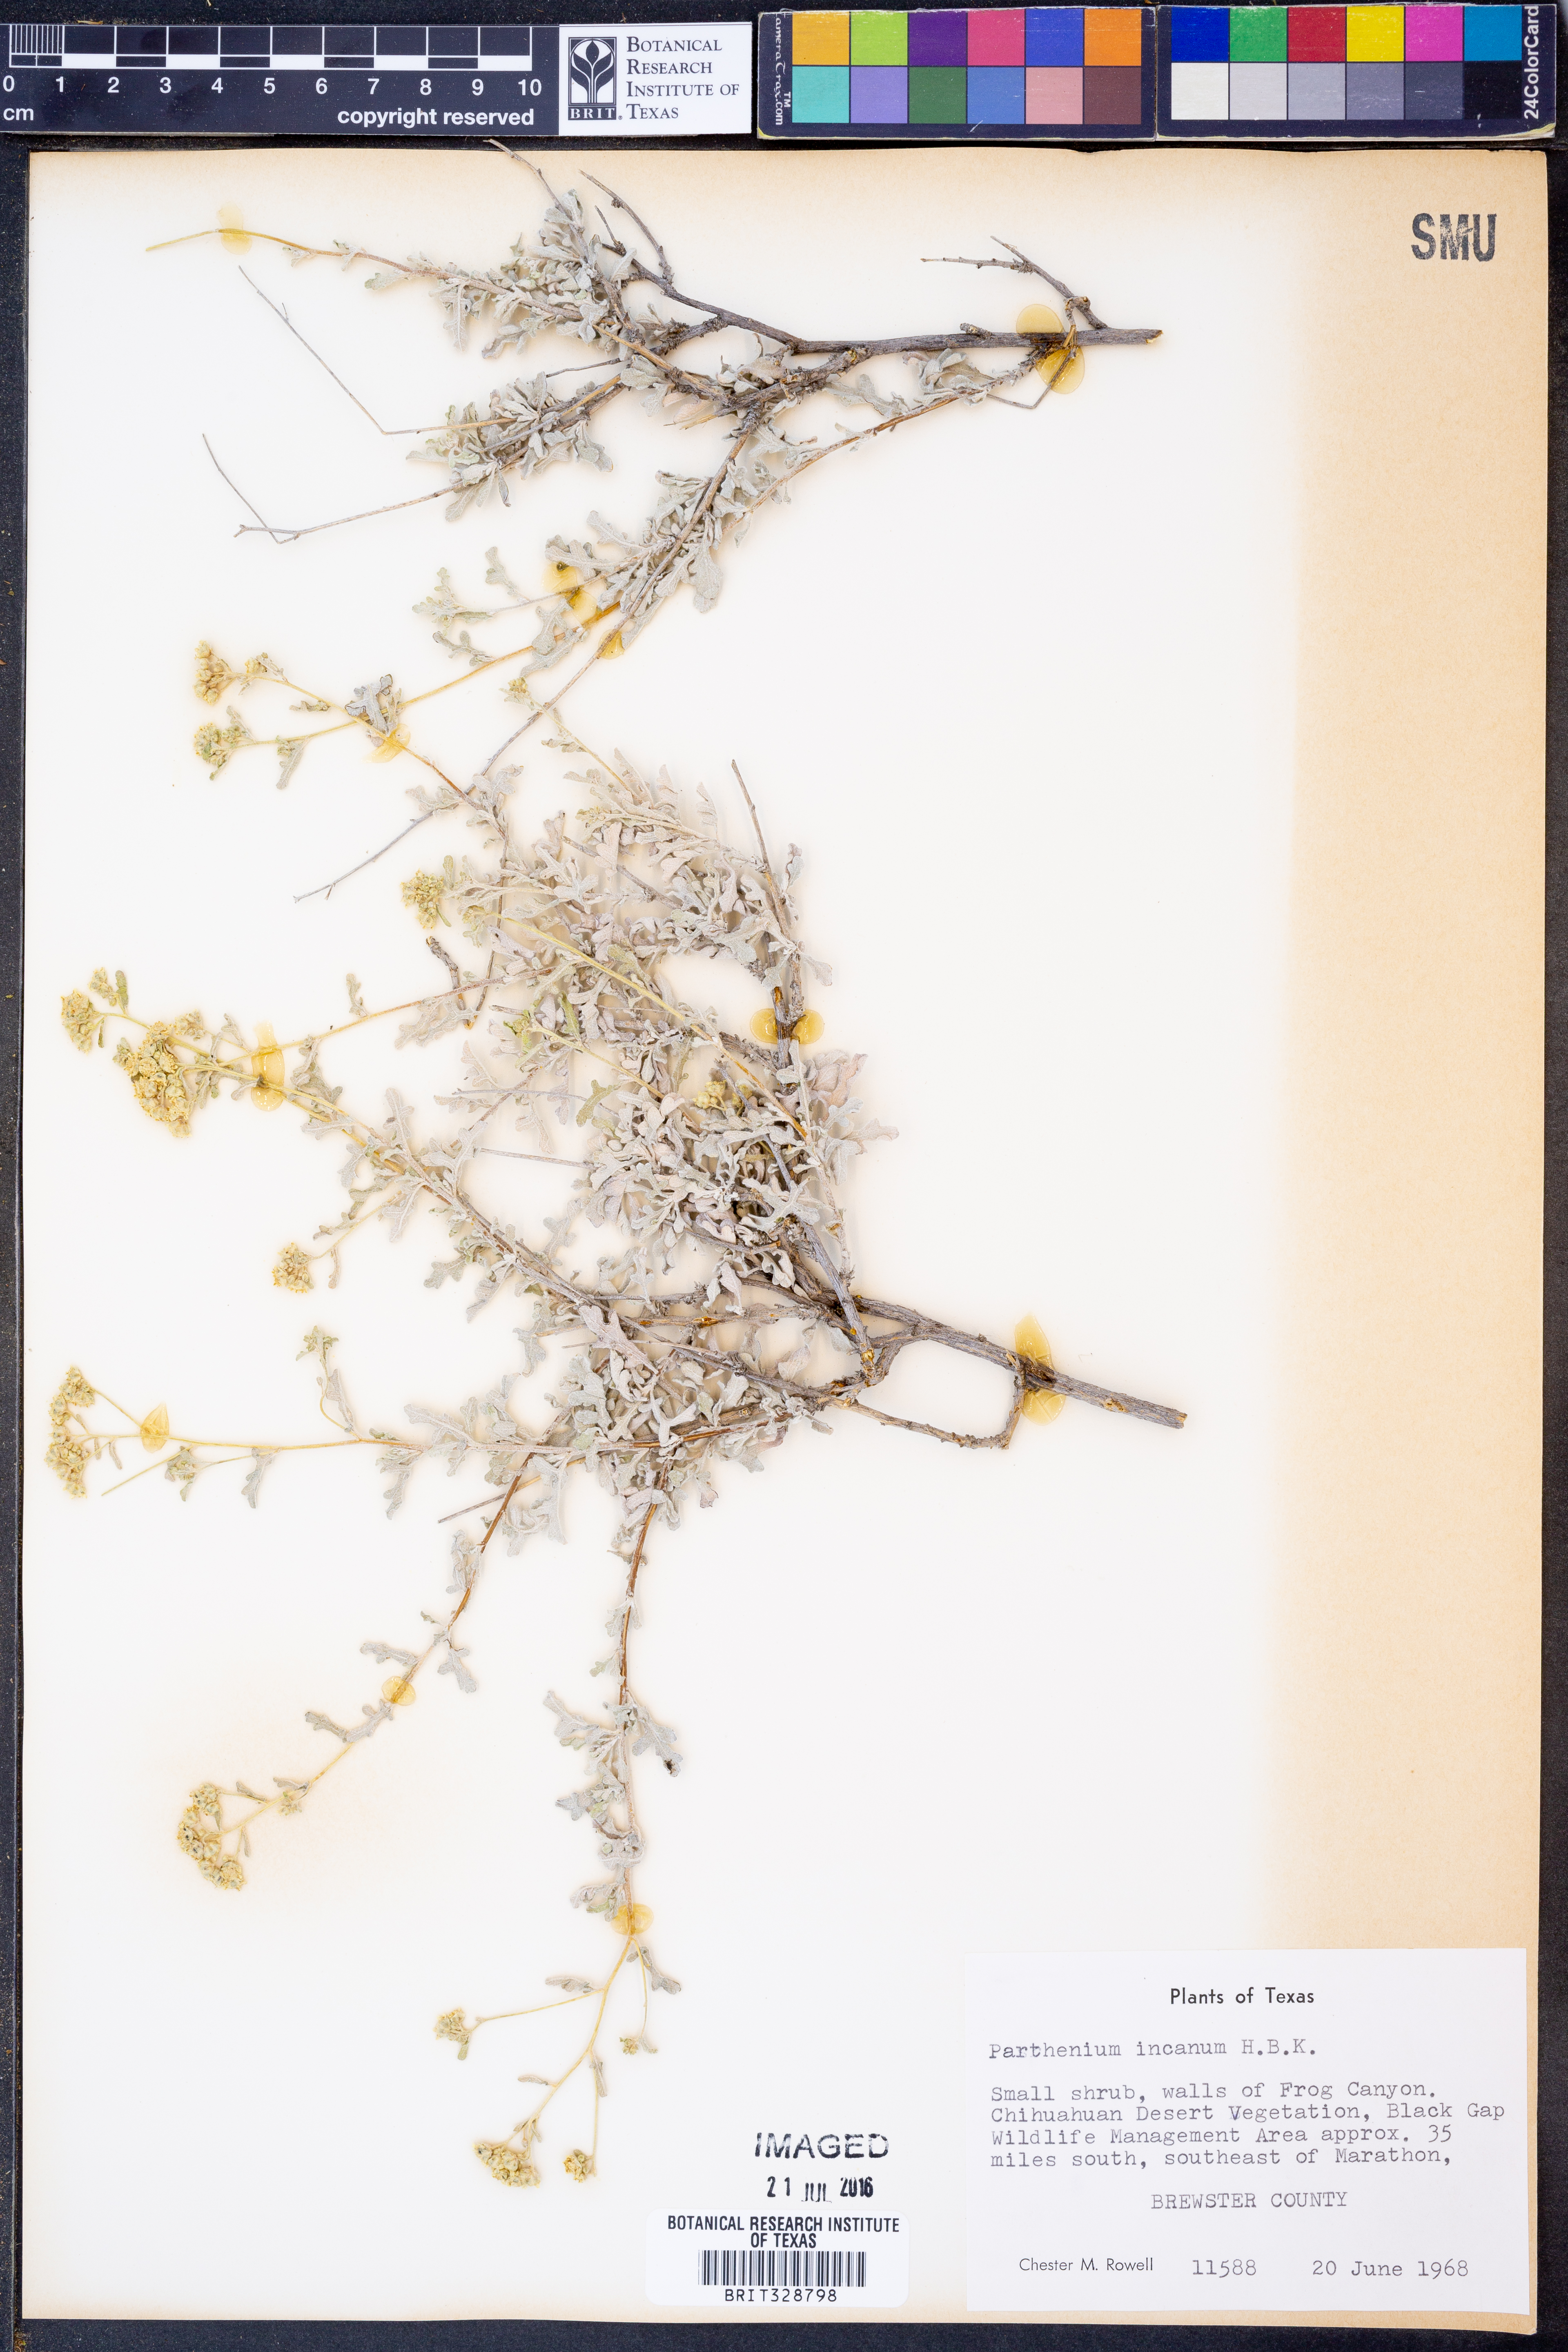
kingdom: Plantae
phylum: Tracheophyta
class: Magnoliopsida
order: Asterales
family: Asteraceae
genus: Parthenium
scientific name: Parthenium incanum
